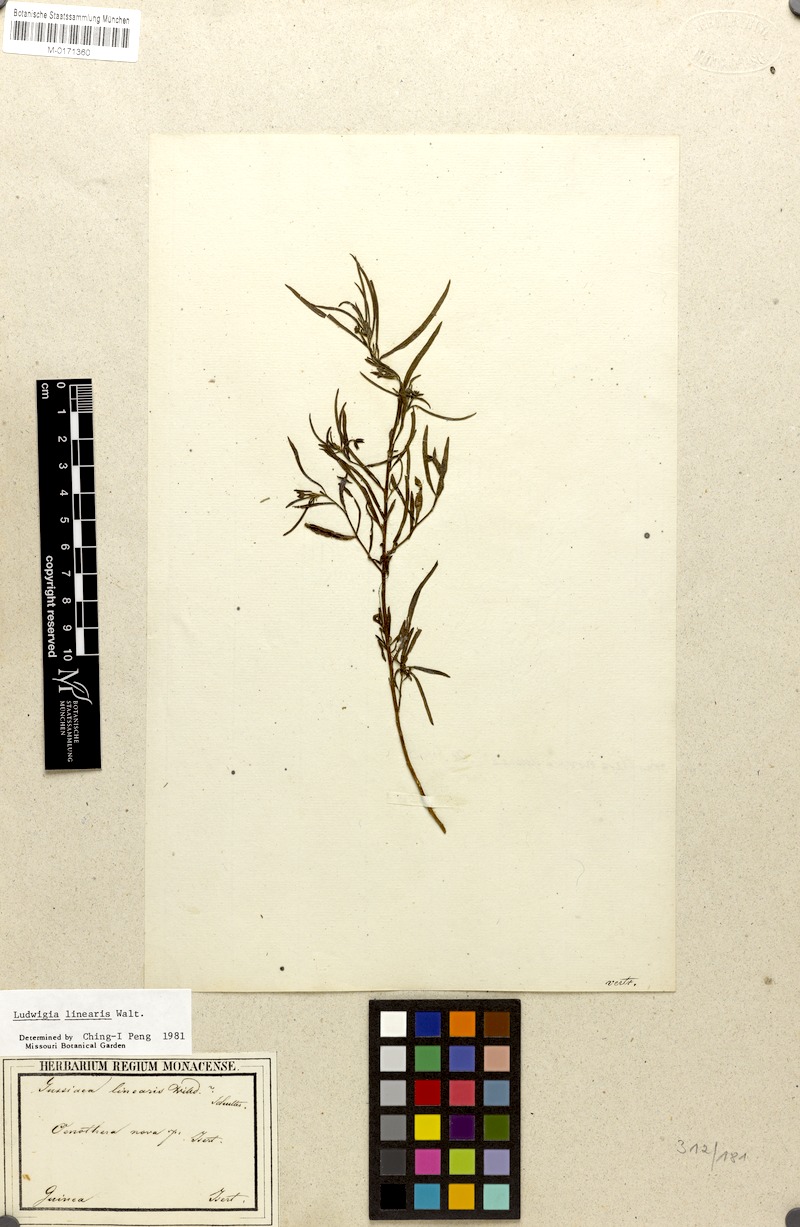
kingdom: Plantae
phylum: Tracheophyta
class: Magnoliopsida
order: Myrtales
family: Onagraceae
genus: Ludwigia
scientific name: Ludwigia linearis
